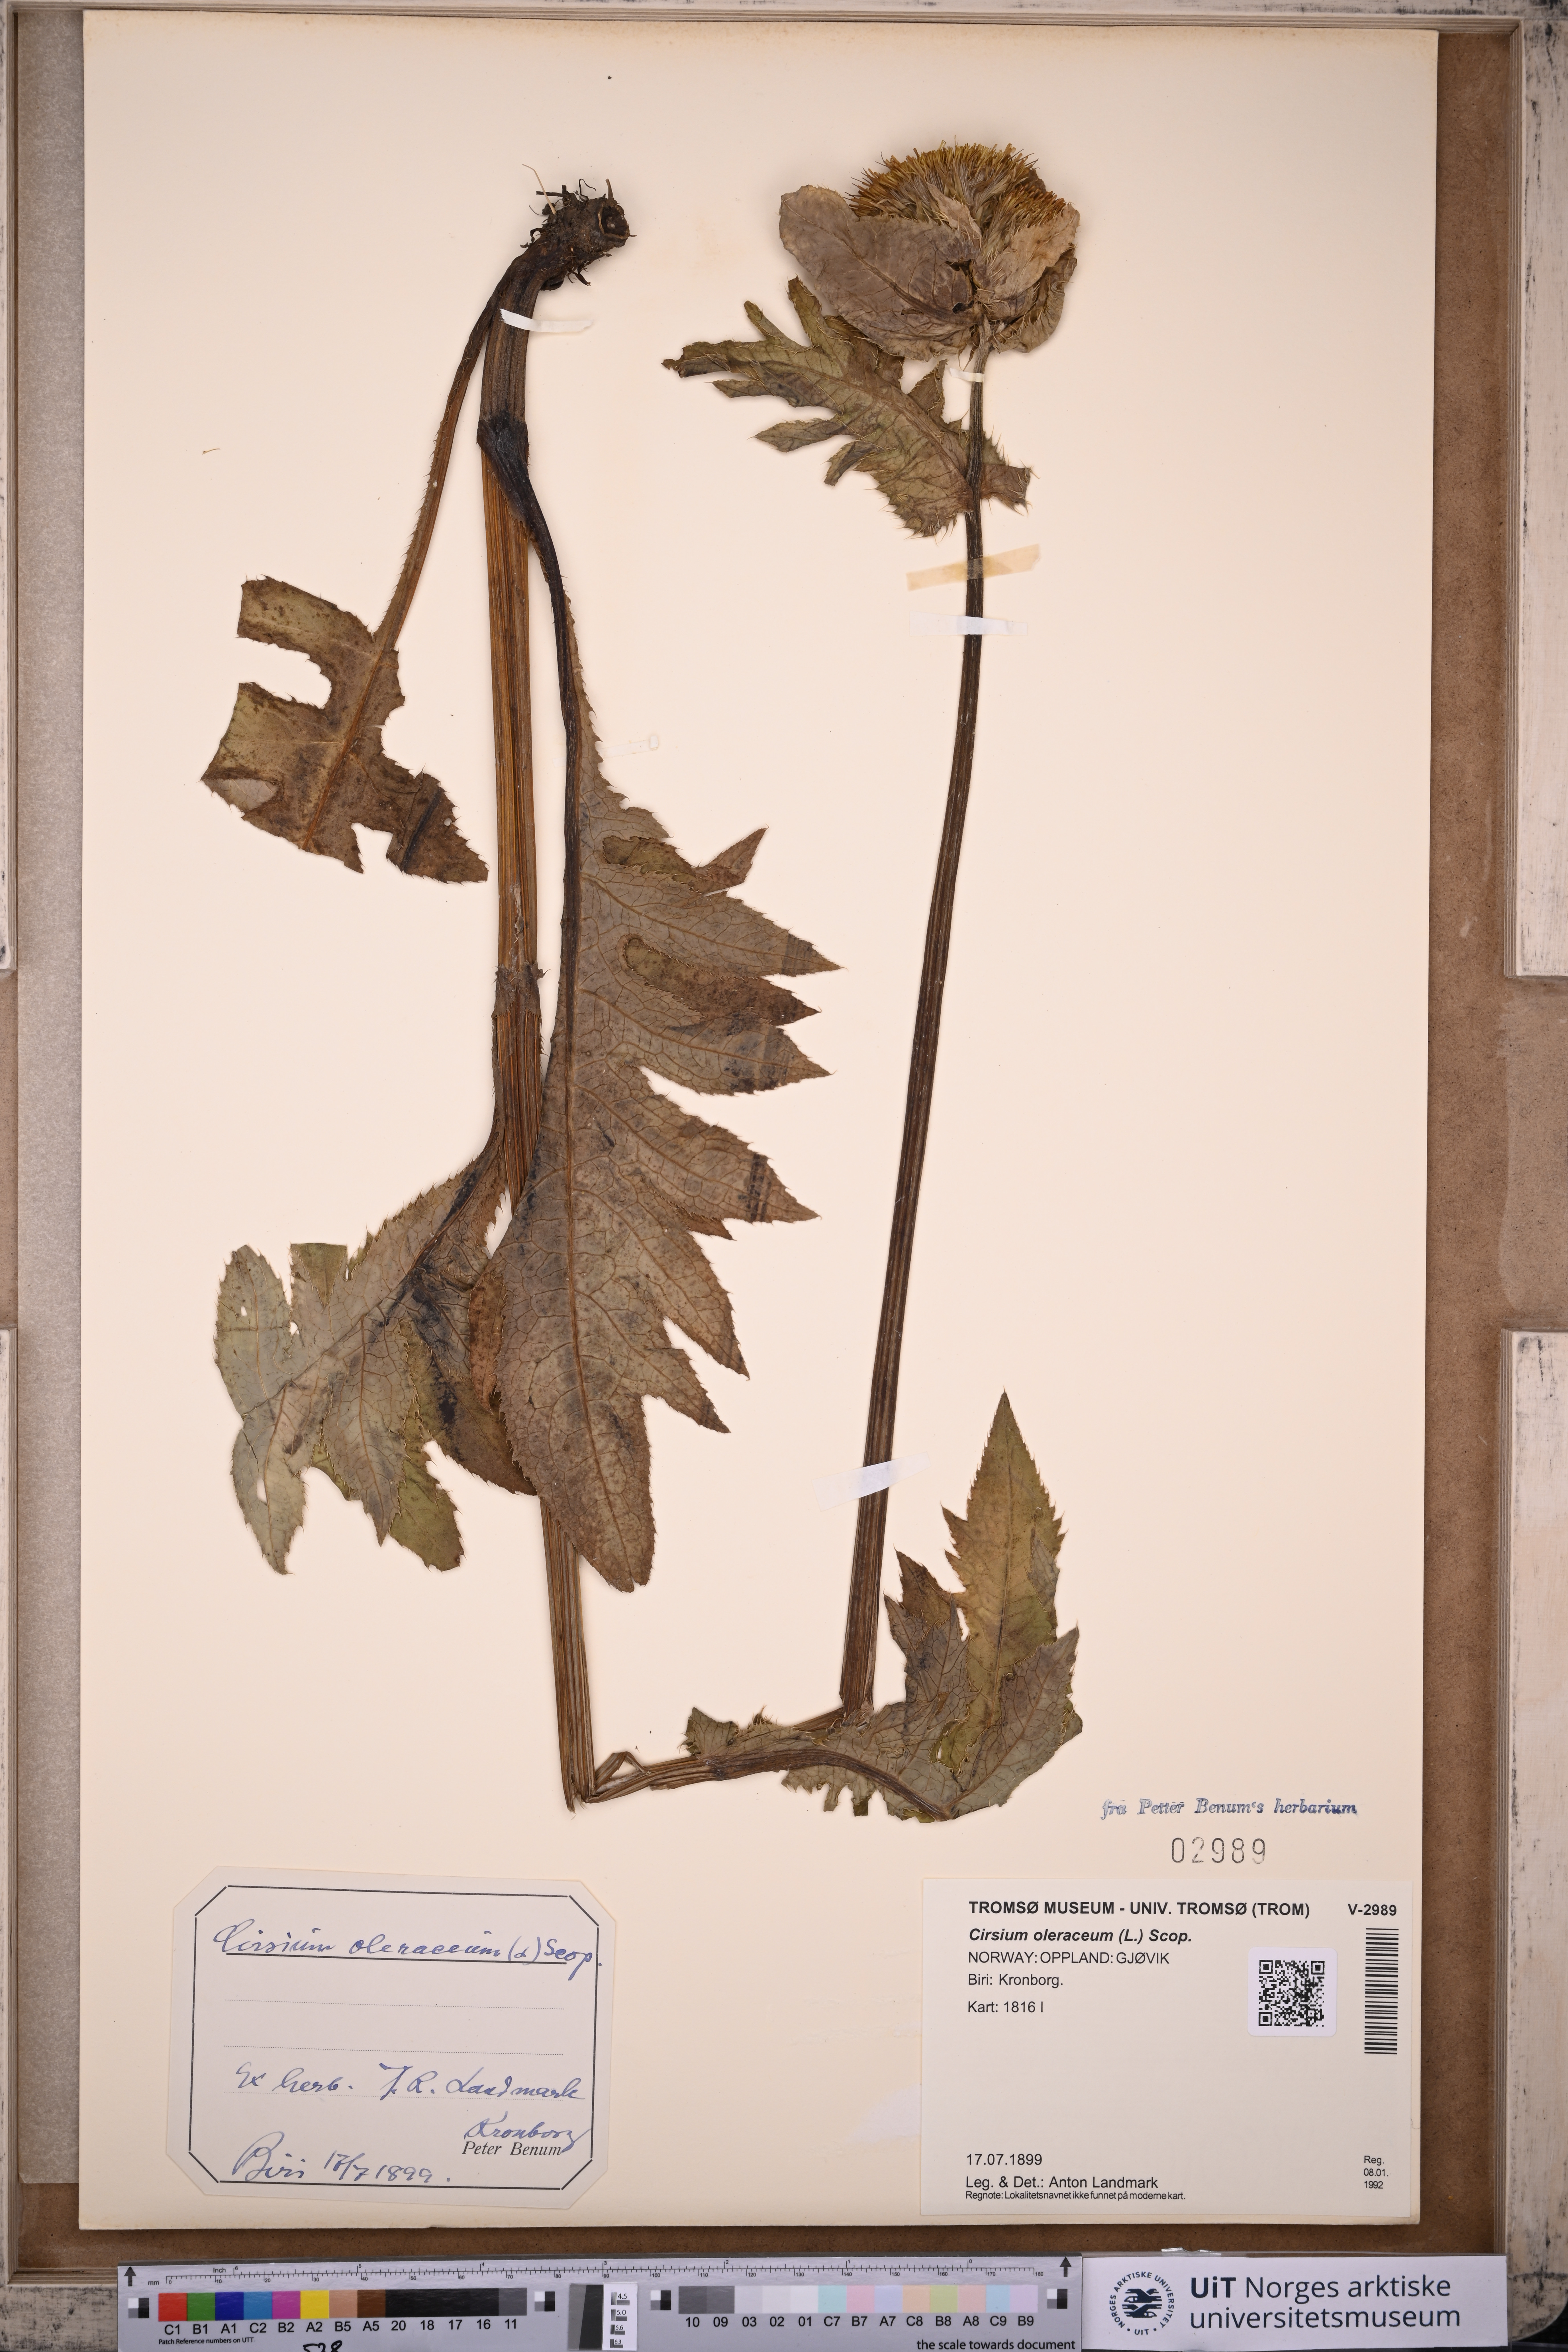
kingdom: Plantae
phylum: Tracheophyta
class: Magnoliopsida
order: Asterales
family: Asteraceae
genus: Cirsium
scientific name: Cirsium oleraceum
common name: Cabbage thistle
